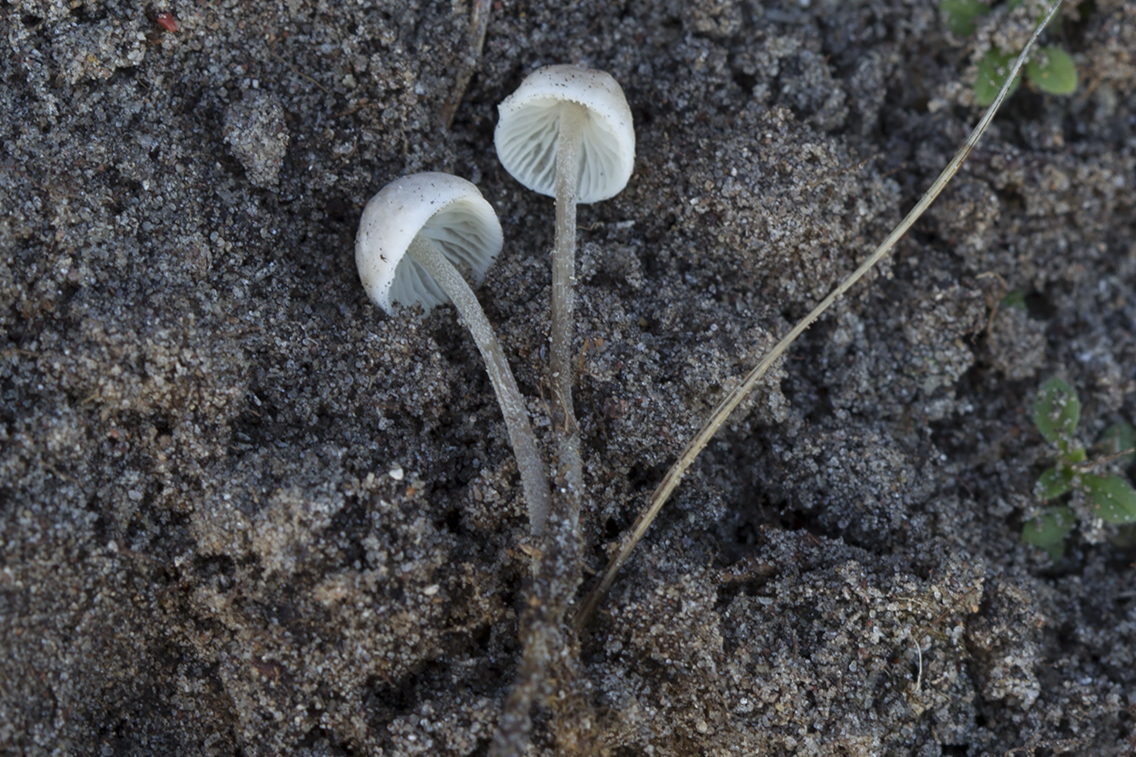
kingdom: Fungi
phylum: Basidiomycota
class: Agaricomycetes
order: Agaricales
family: Tricholomataceae
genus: Mycenella
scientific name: Mycenella trachyspora
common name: rødprikket dughat
